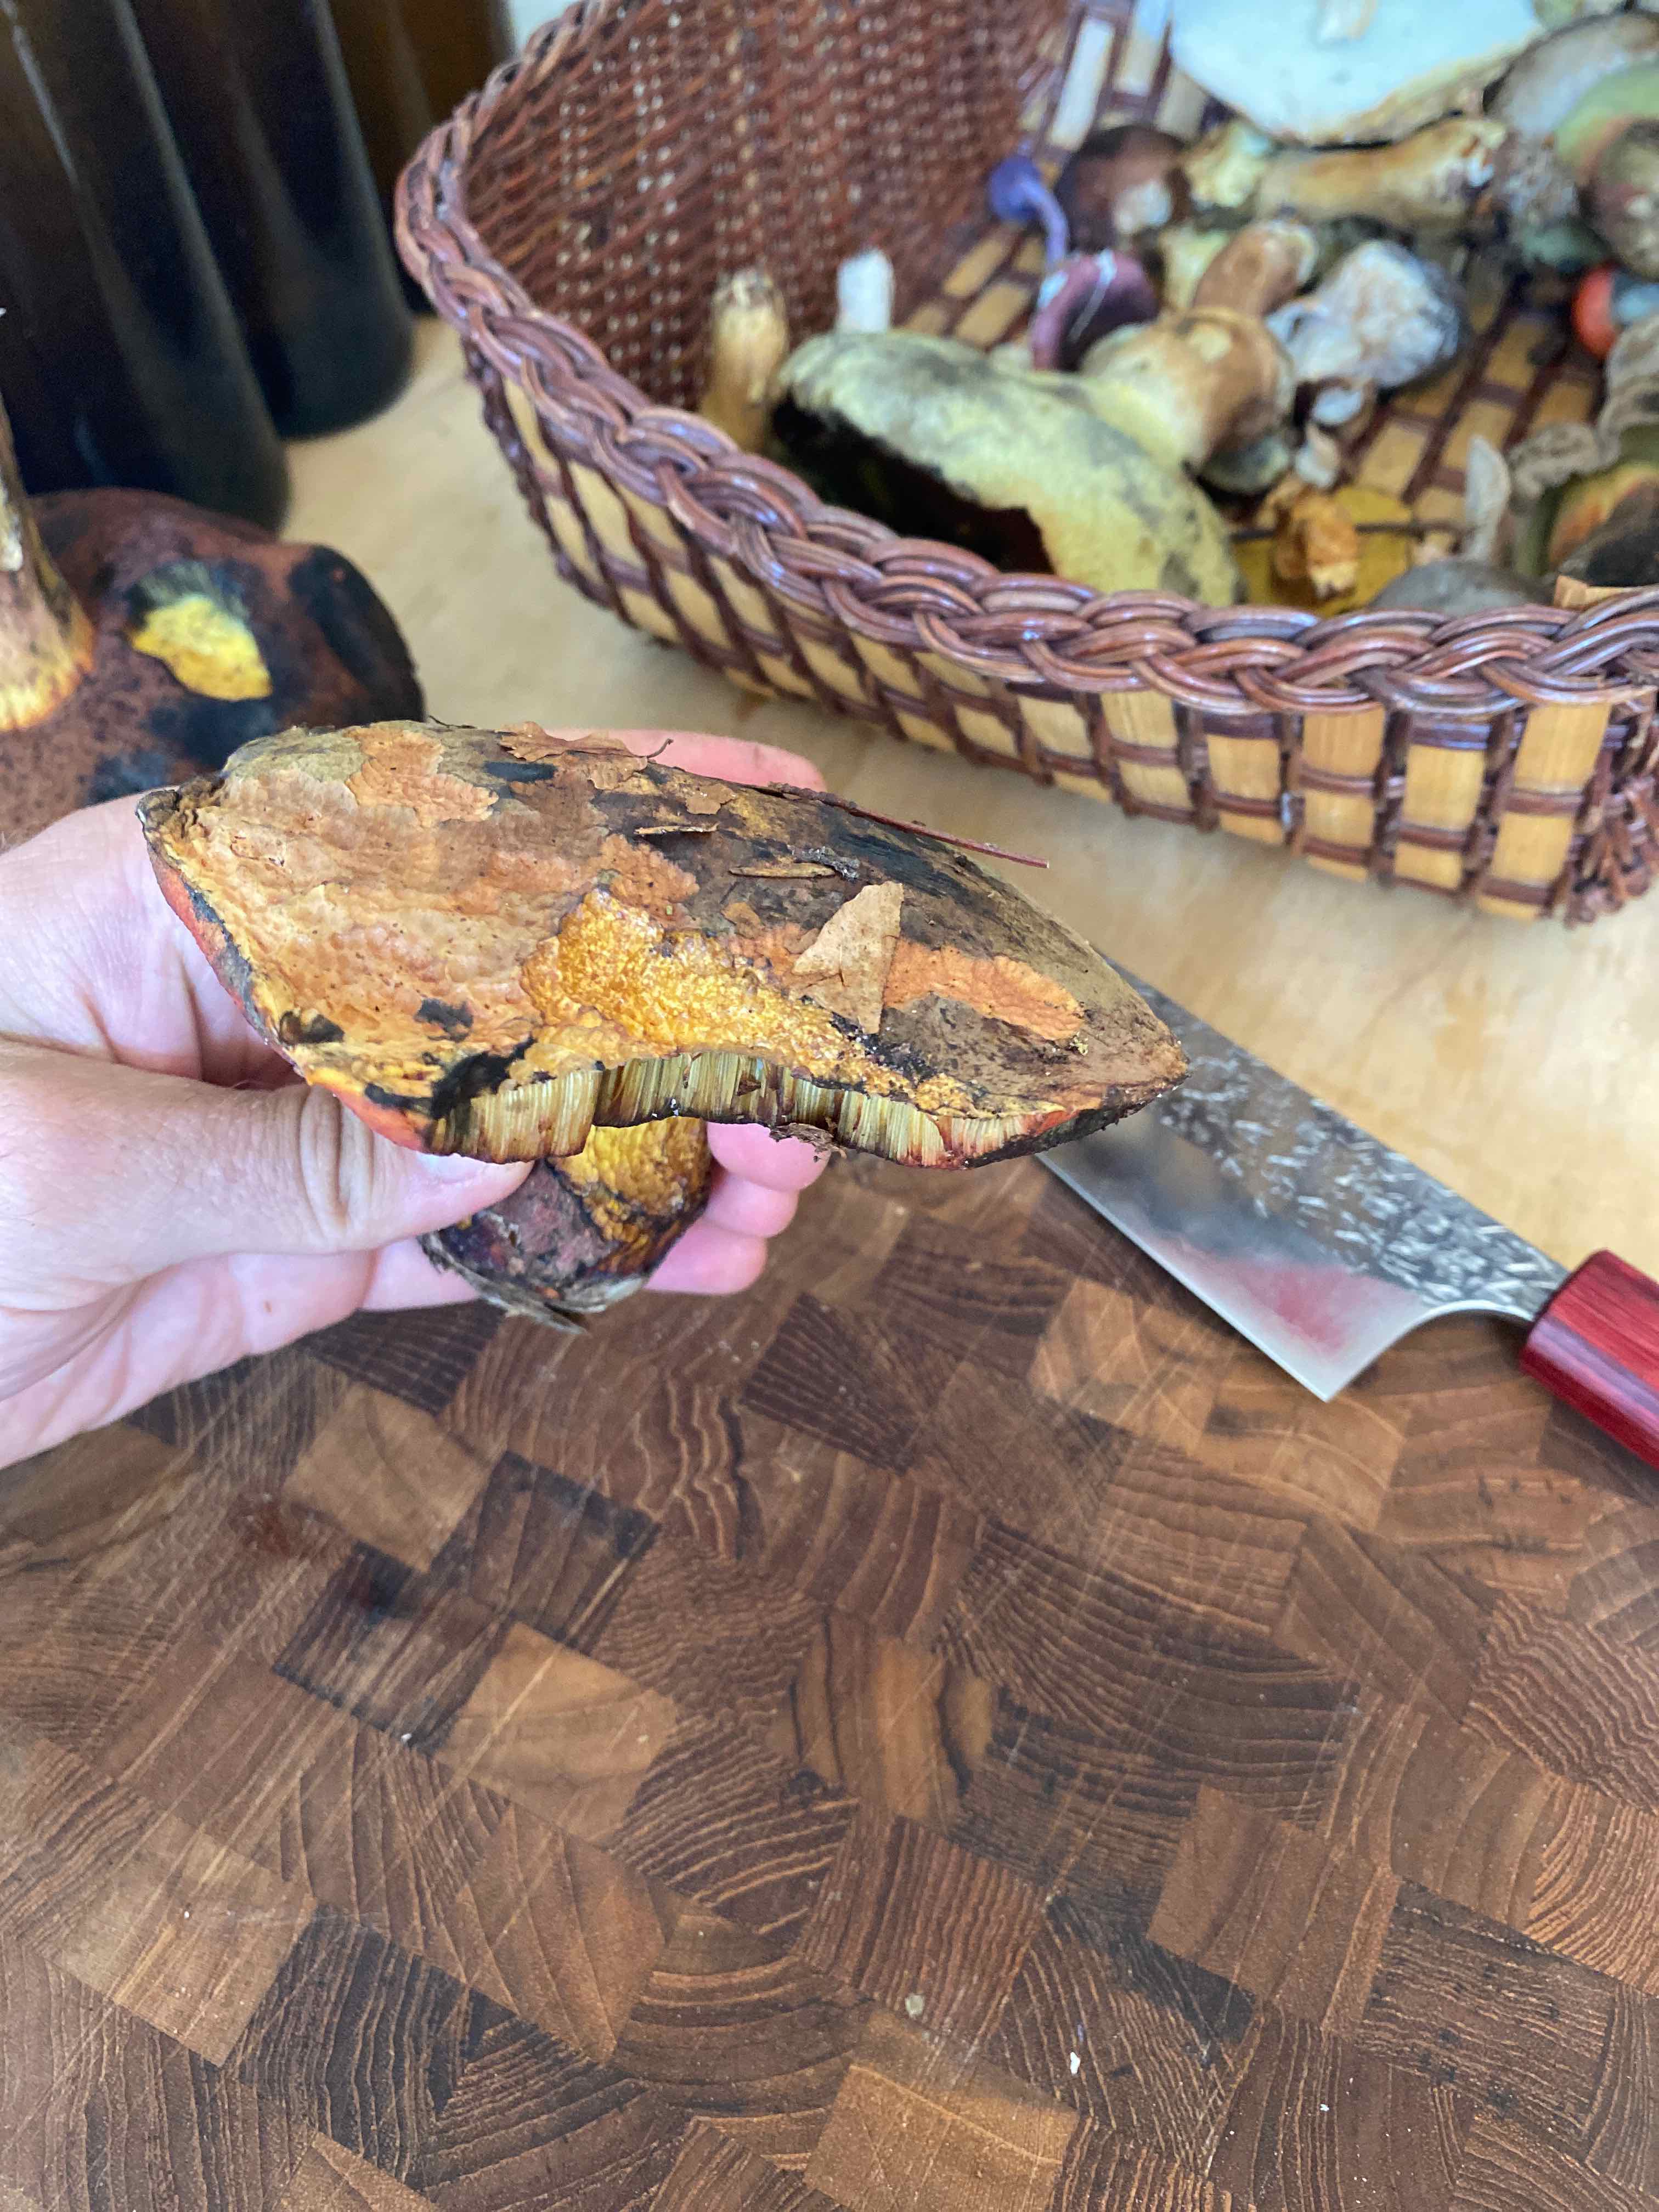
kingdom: Fungi
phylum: Basidiomycota
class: Agaricomycetes
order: Boletales
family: Boletaceae
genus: Neoboletus
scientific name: Neoboletus erythropus
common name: punktstokket indigorørhat
